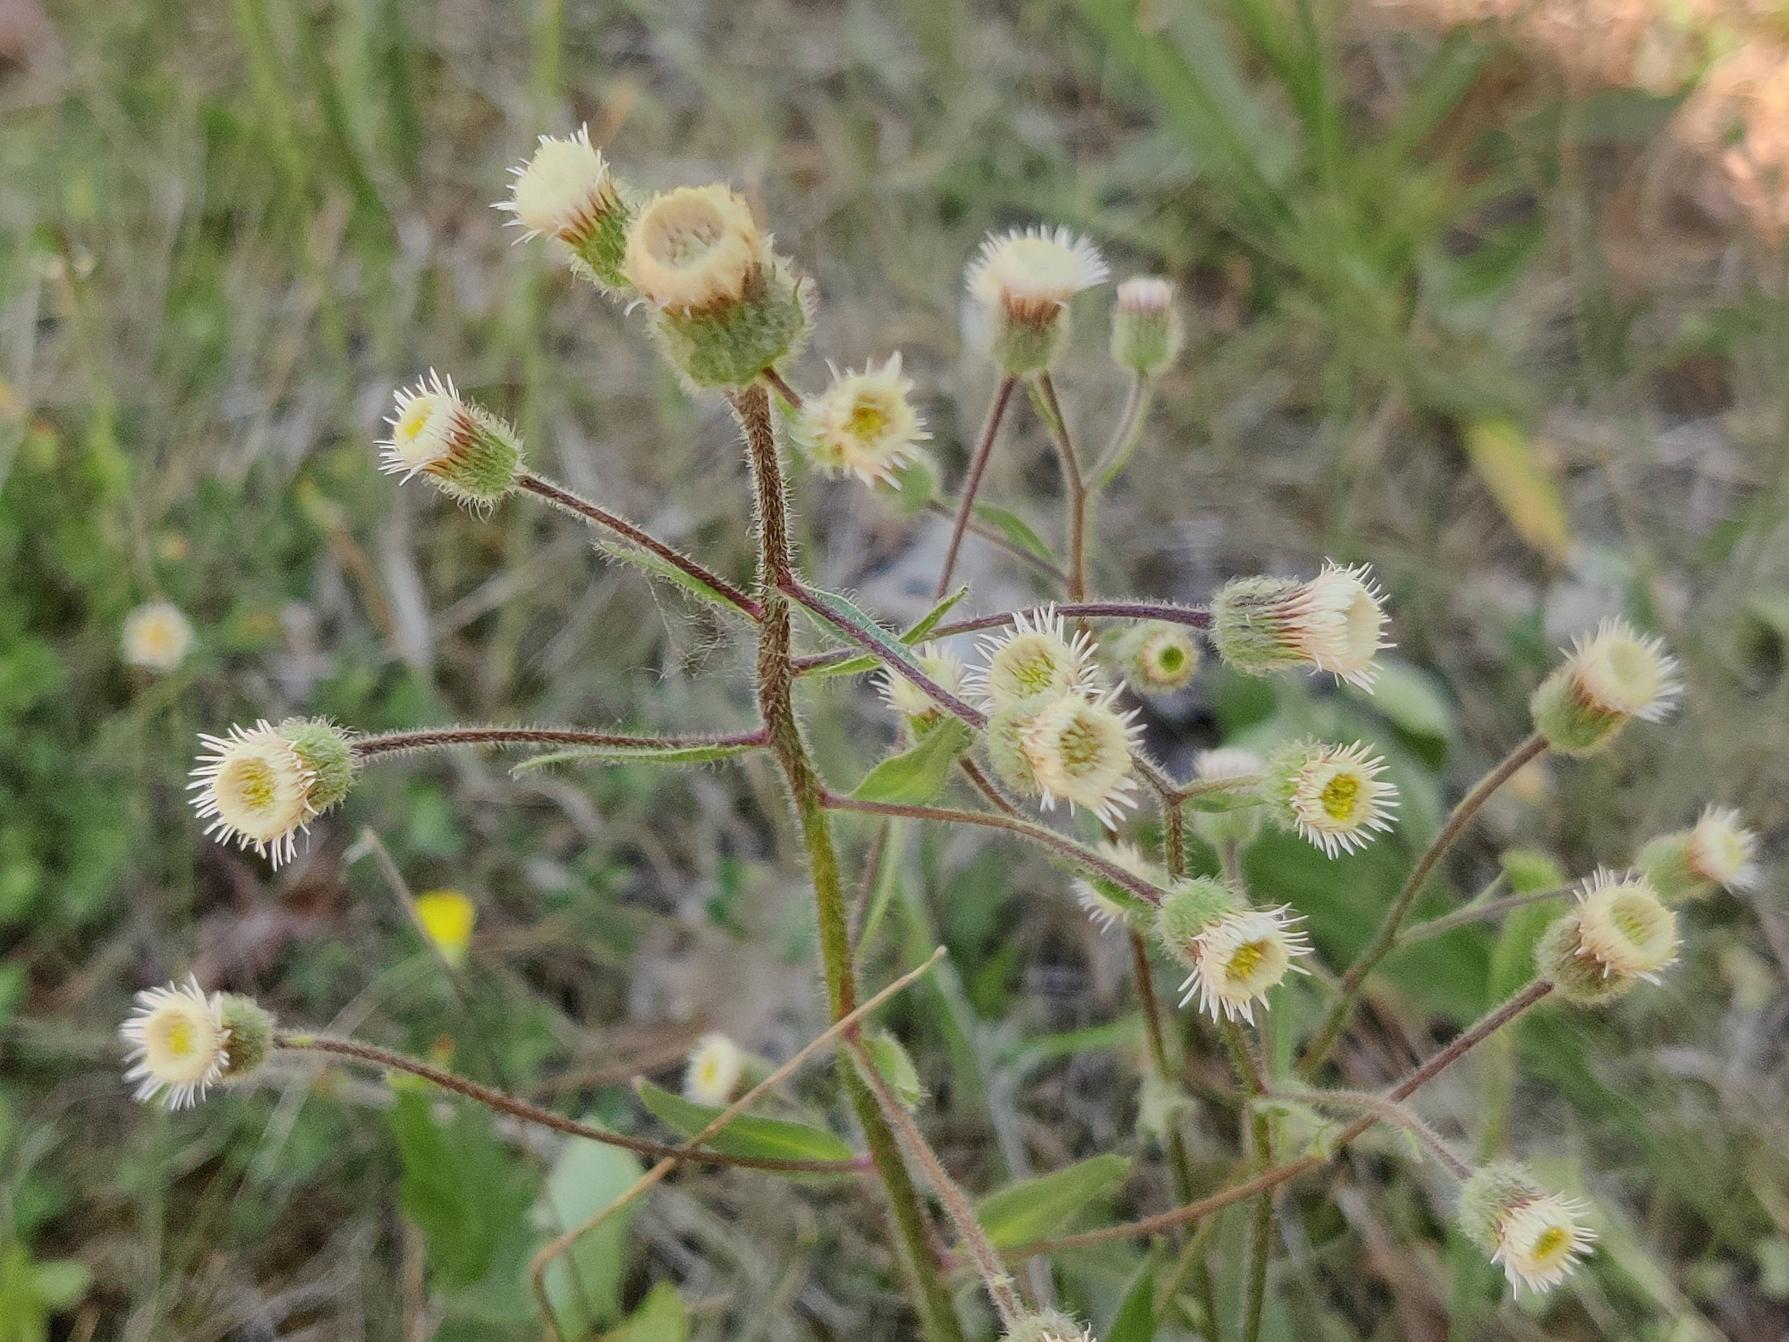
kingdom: Plantae
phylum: Tracheophyta
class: Magnoliopsida
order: Asterales
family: Asteraceae
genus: Erigeron
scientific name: Erigeron acris
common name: Bitter bakkestjerne
